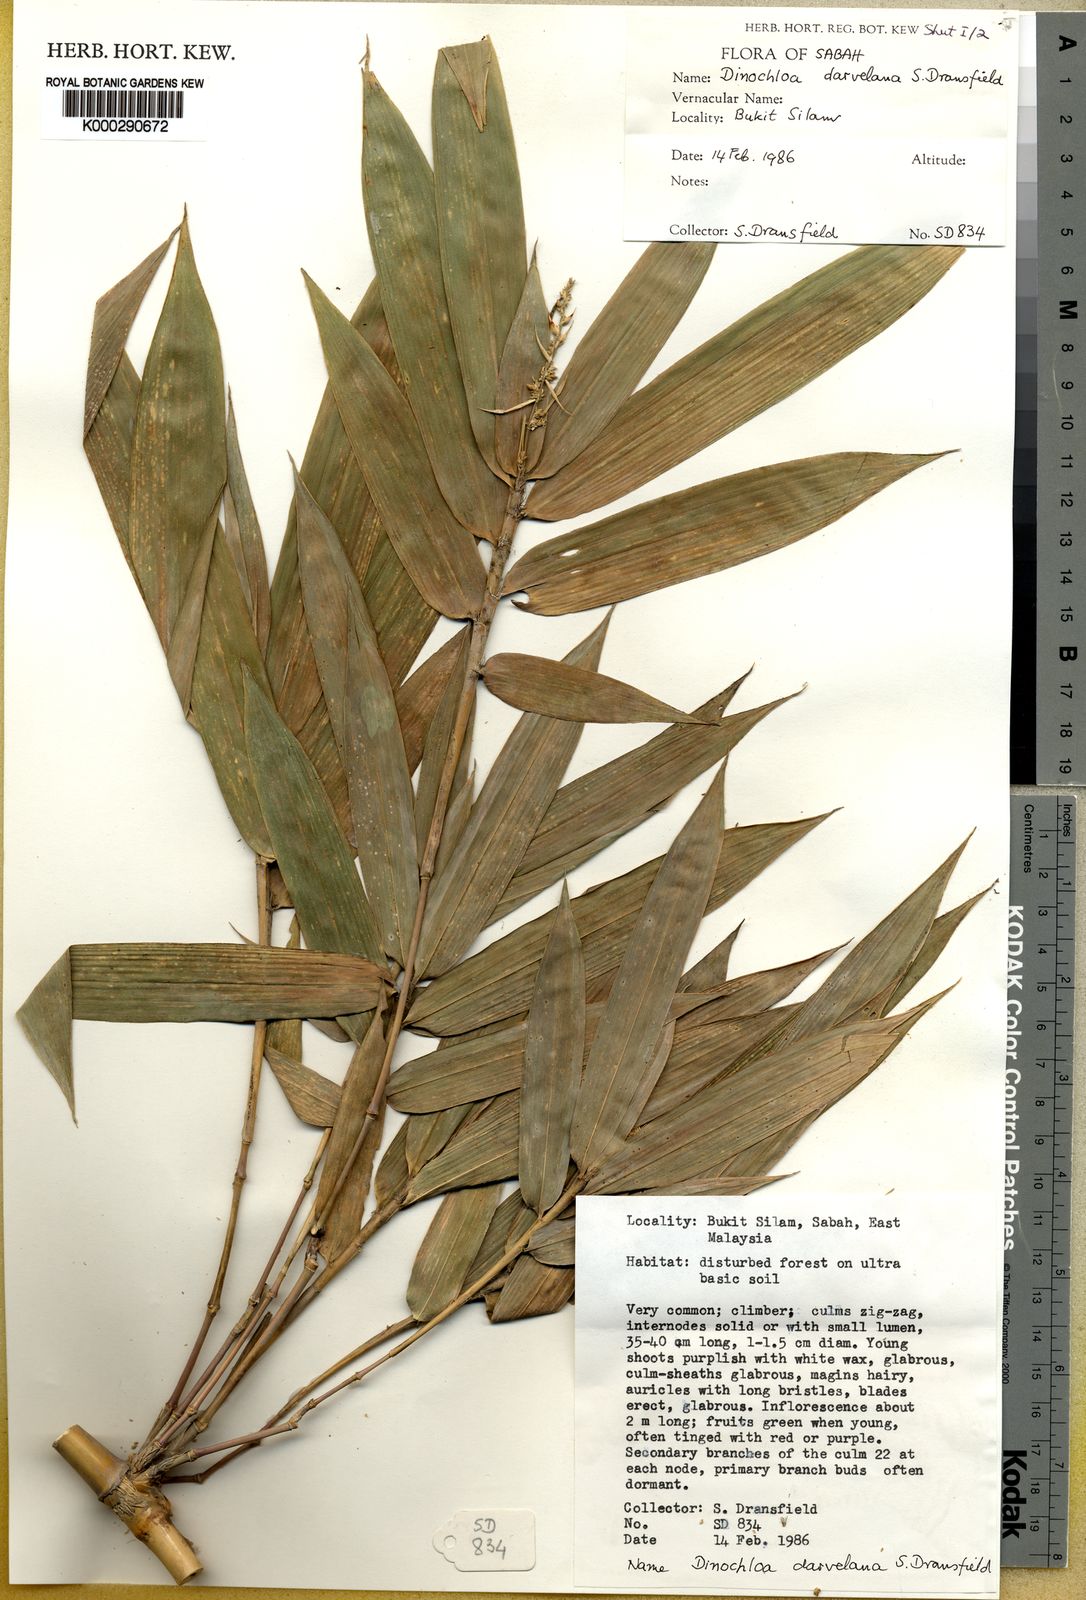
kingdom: Plantae
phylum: Tracheophyta
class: Liliopsida
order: Poales
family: Poaceae
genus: Dinochloa
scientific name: Dinochloa darvelana
